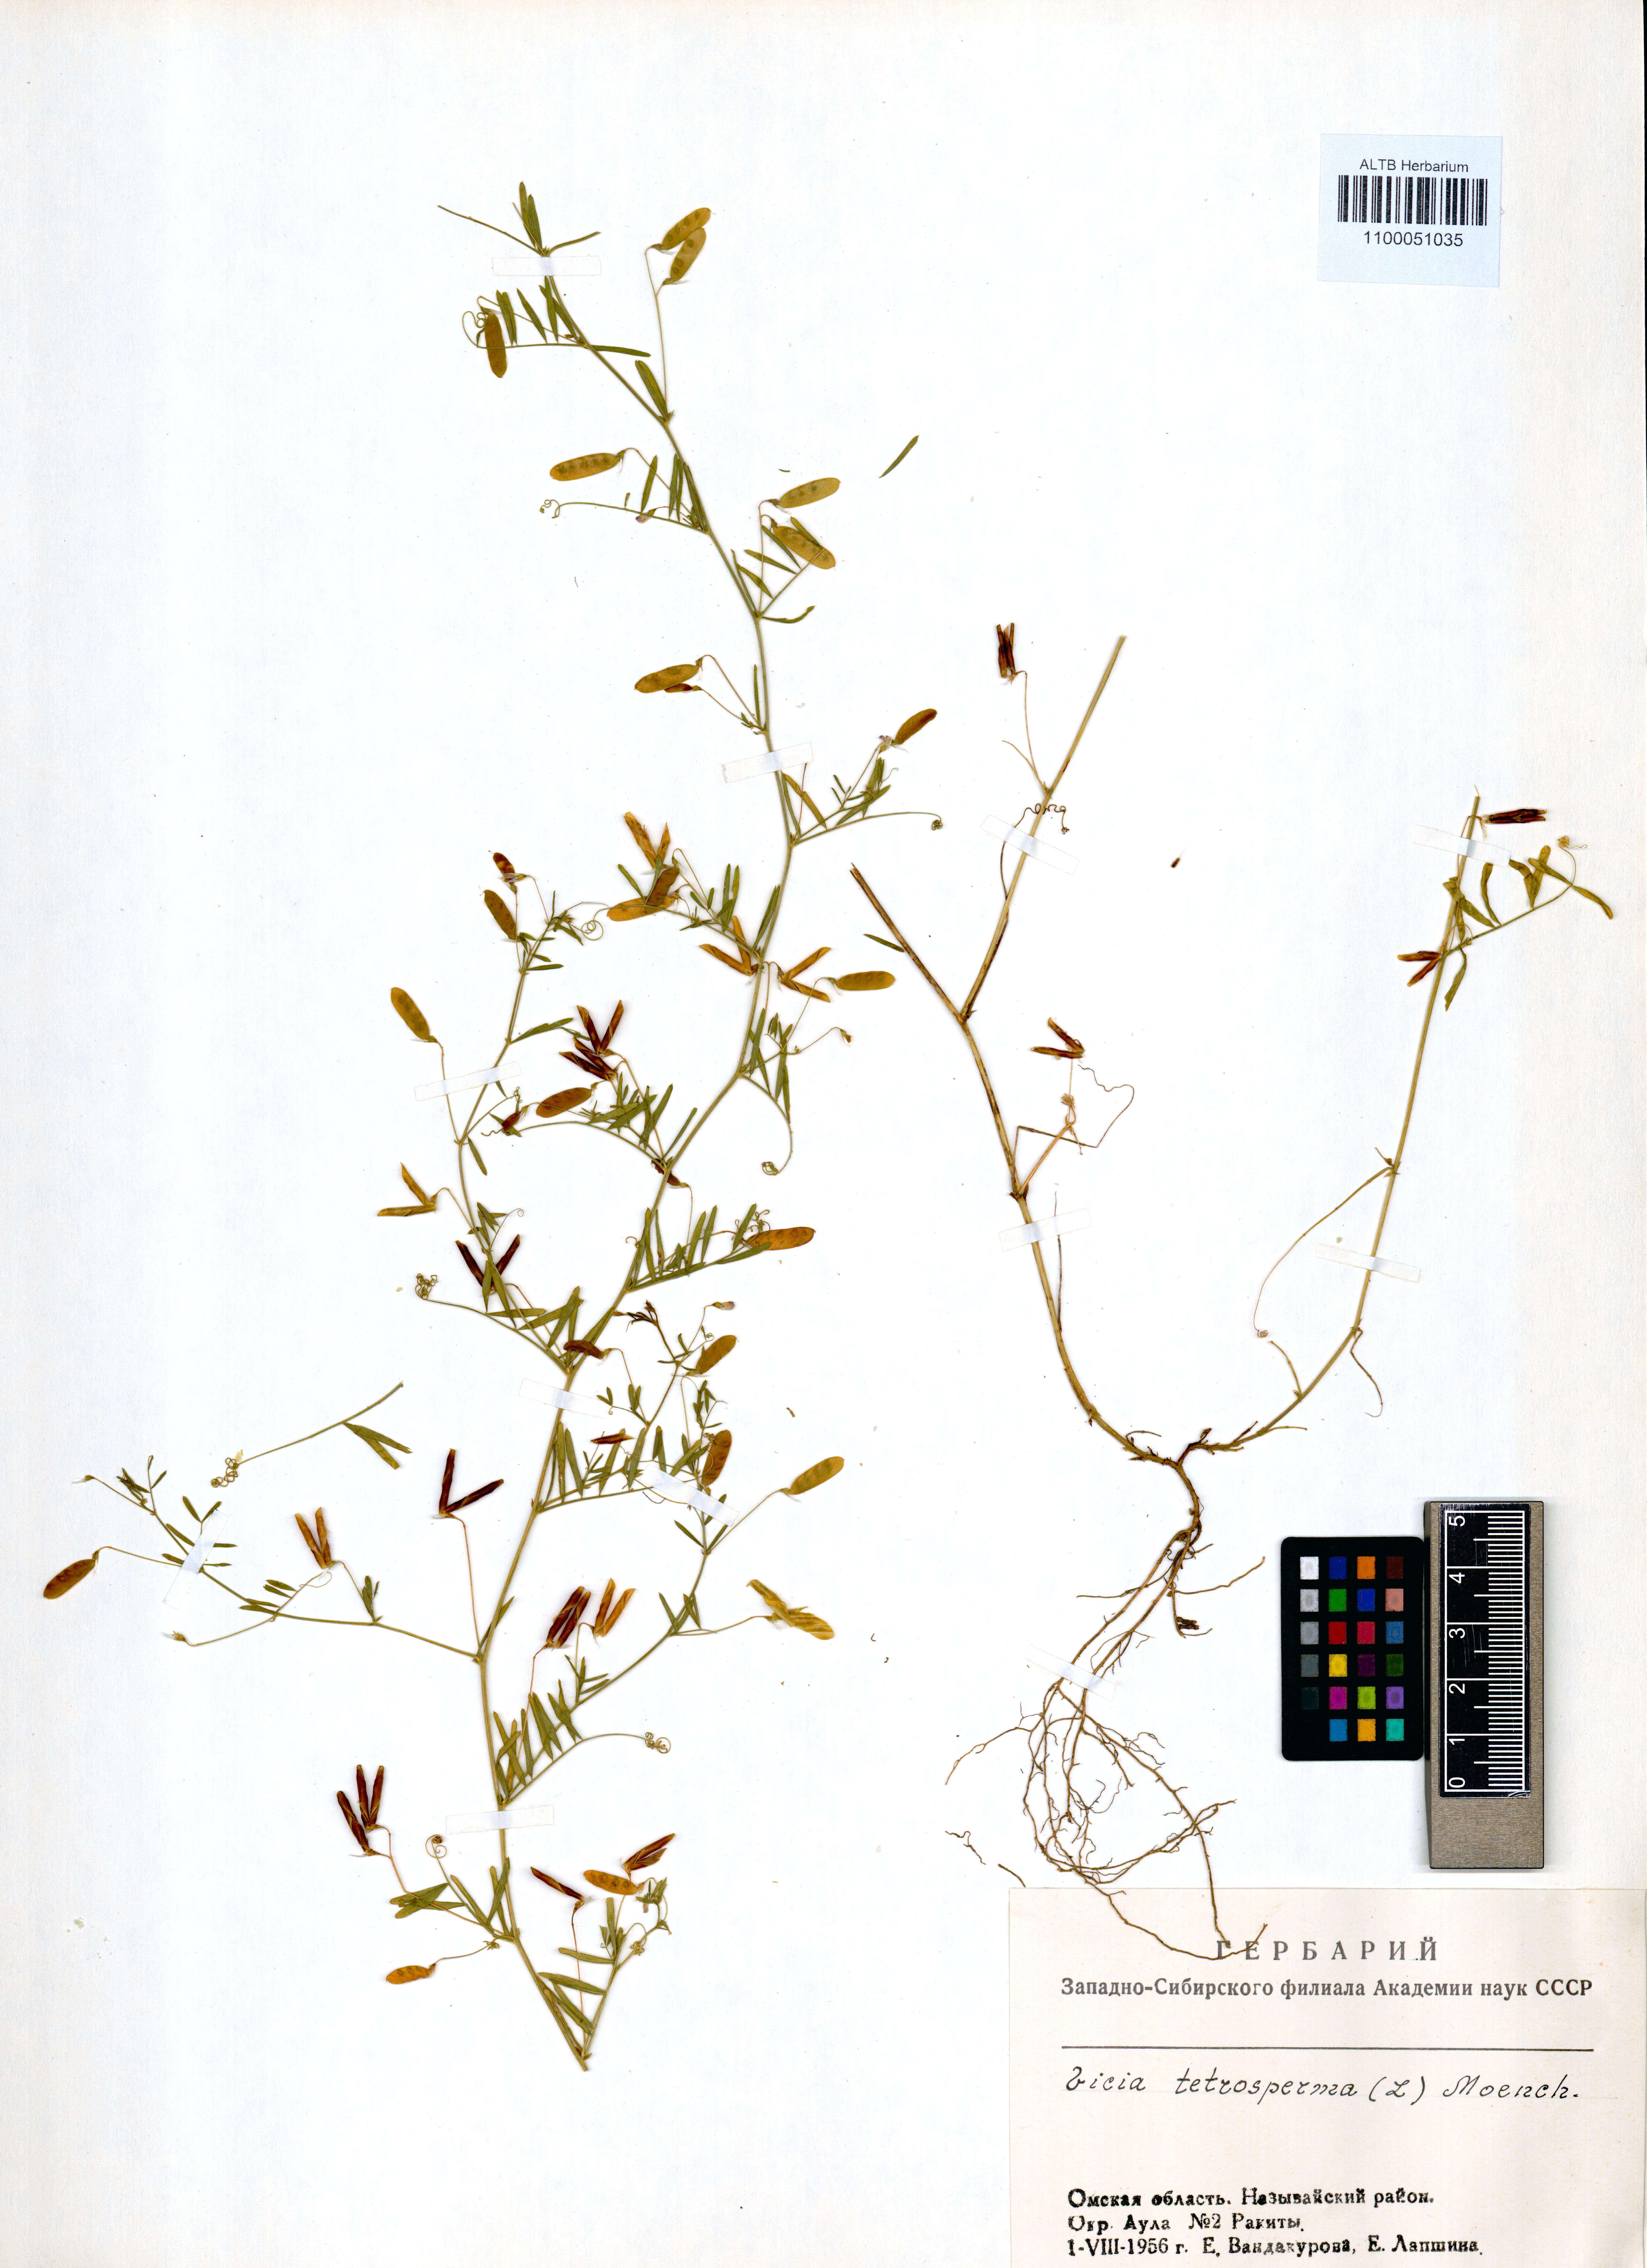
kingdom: Plantae
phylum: Tracheophyta
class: Magnoliopsida
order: Fabales
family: Fabaceae
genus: Vicia
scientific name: Vicia tetrasperma
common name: Smooth tare
